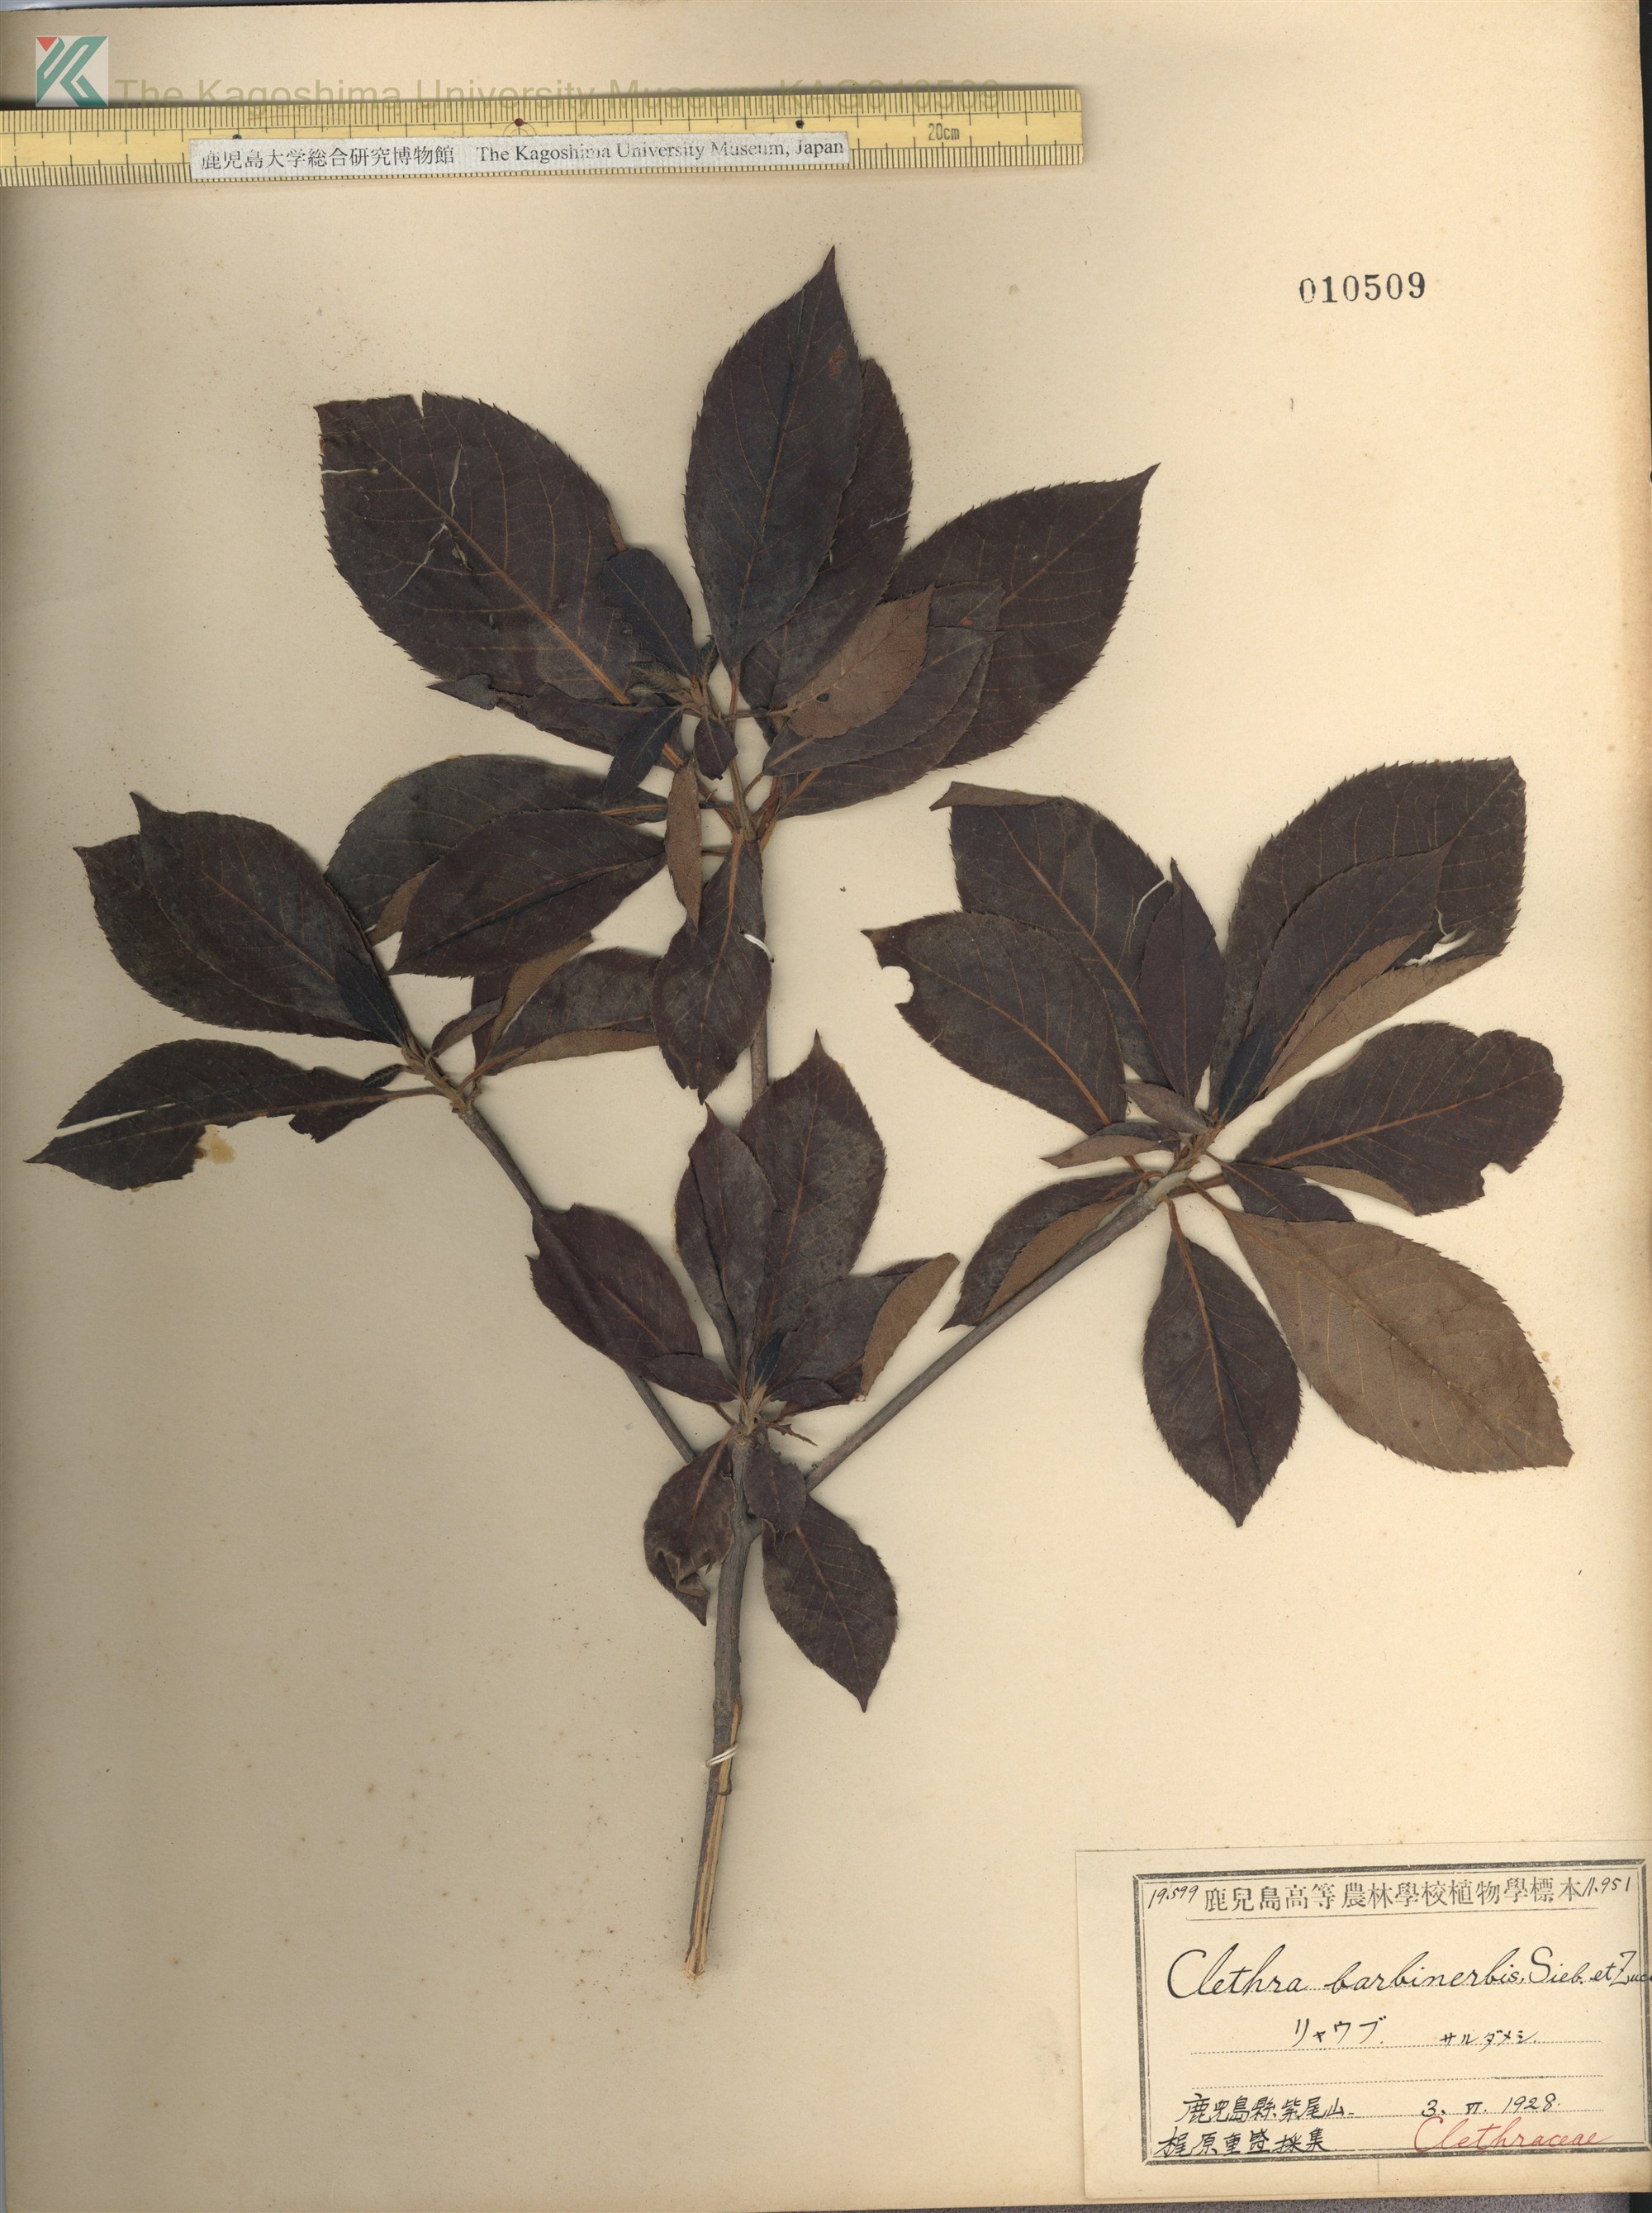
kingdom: Plantae
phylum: Tracheophyta
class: Magnoliopsida
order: Ericales
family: Clethraceae
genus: Clethra
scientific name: Clethra barbinervis
